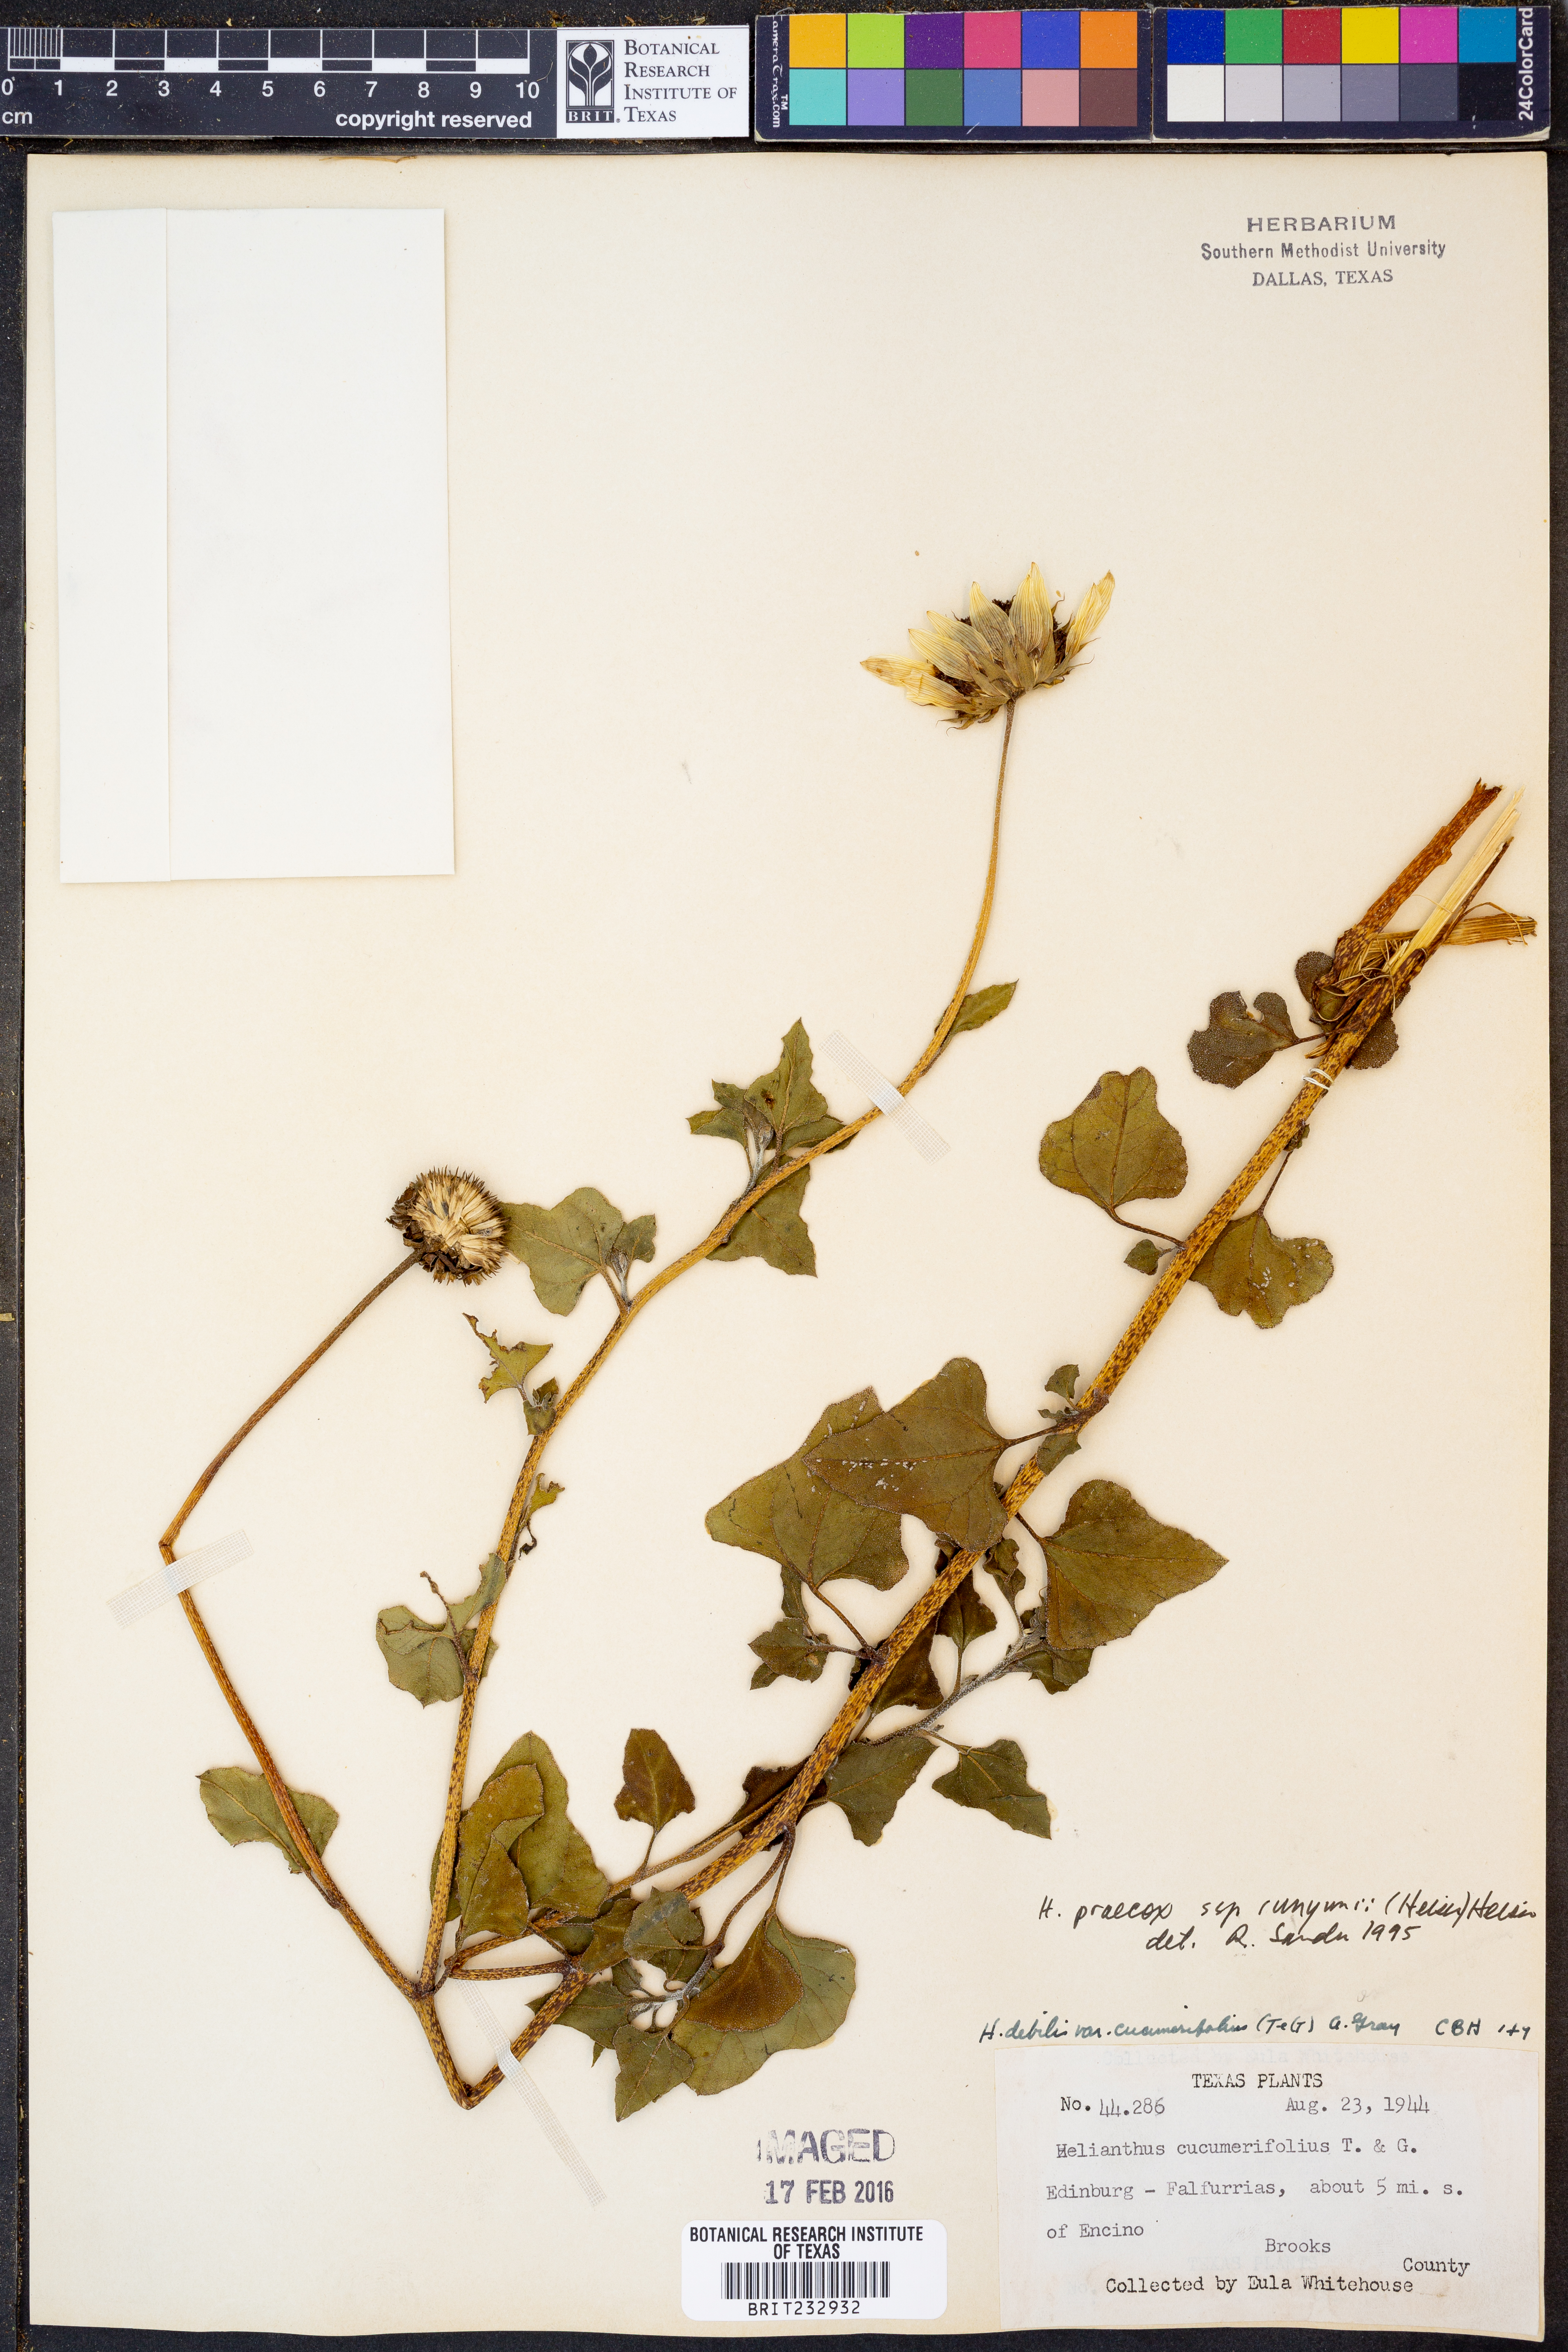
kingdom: Plantae
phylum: Tracheophyta
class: Magnoliopsida
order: Asterales
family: Asteraceae
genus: Helianthus
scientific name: Helianthus praecox
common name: Texas sunflower
